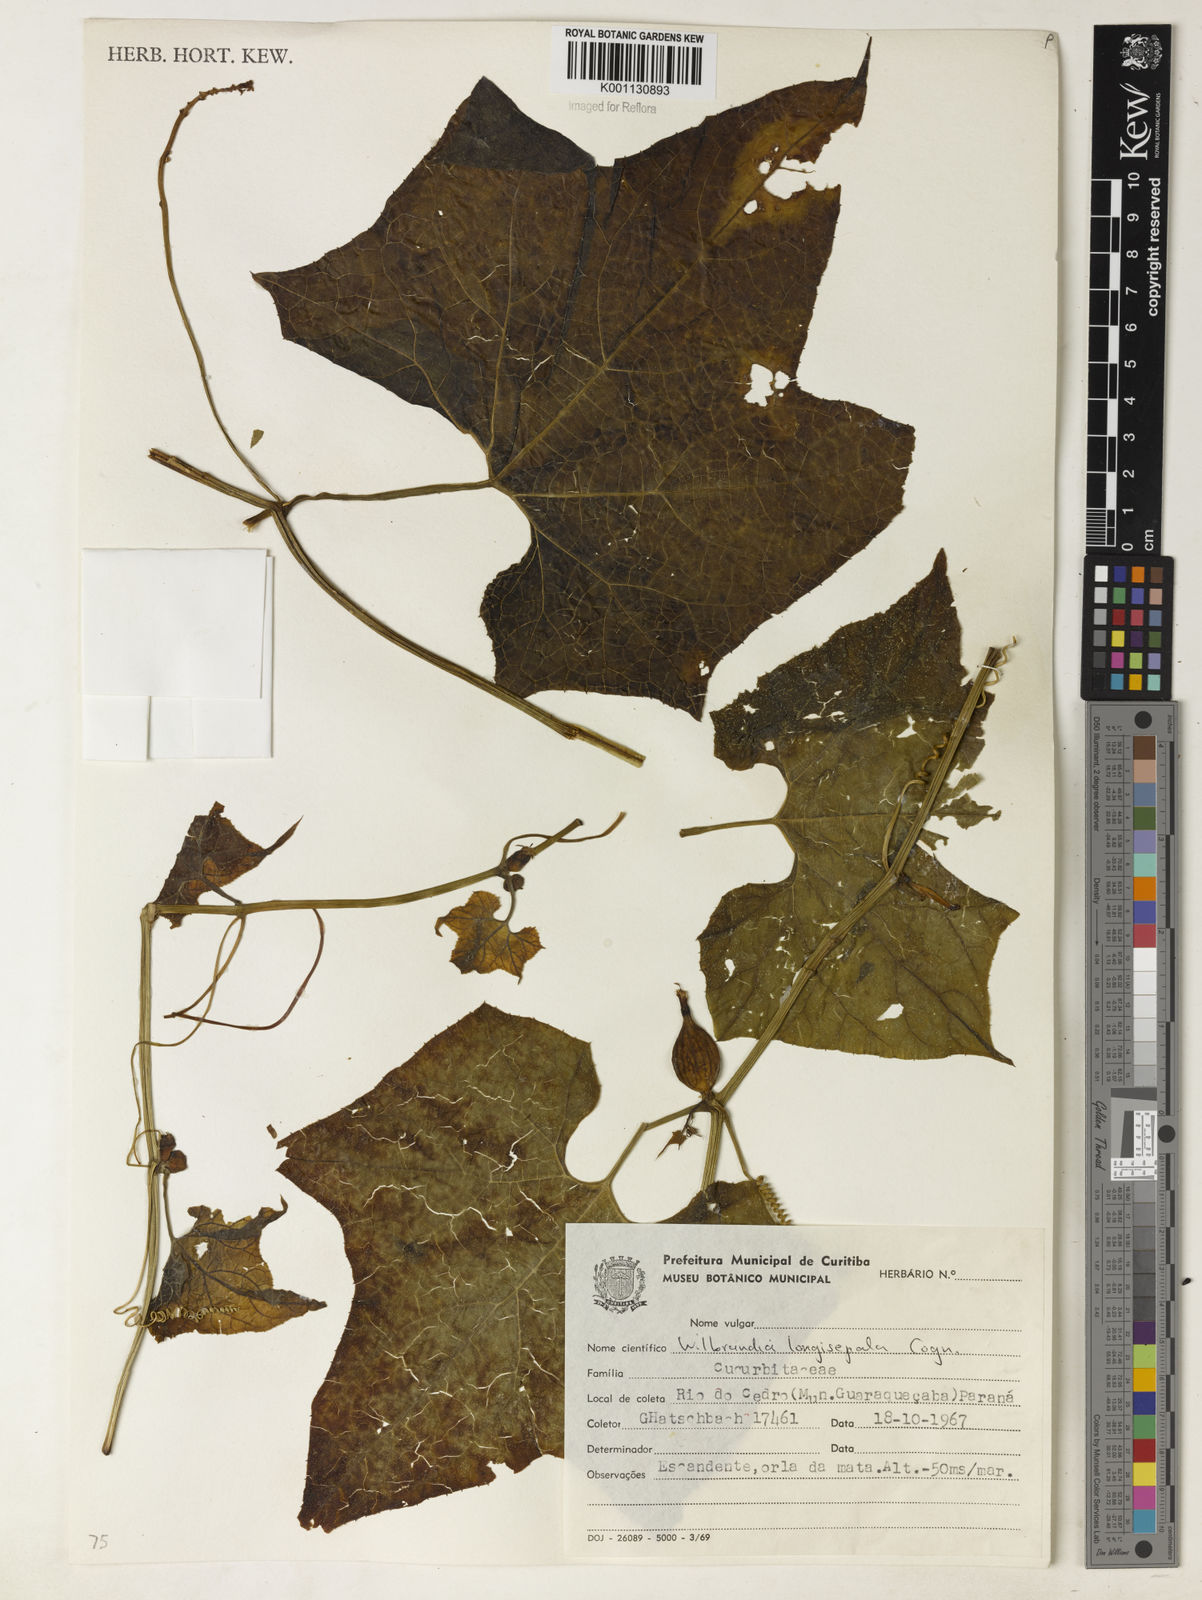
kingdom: Plantae
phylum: Tracheophyta
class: Magnoliopsida
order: Cucurbitales
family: Cucurbitaceae
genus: Wilbrandia
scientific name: Wilbrandia longisepala
